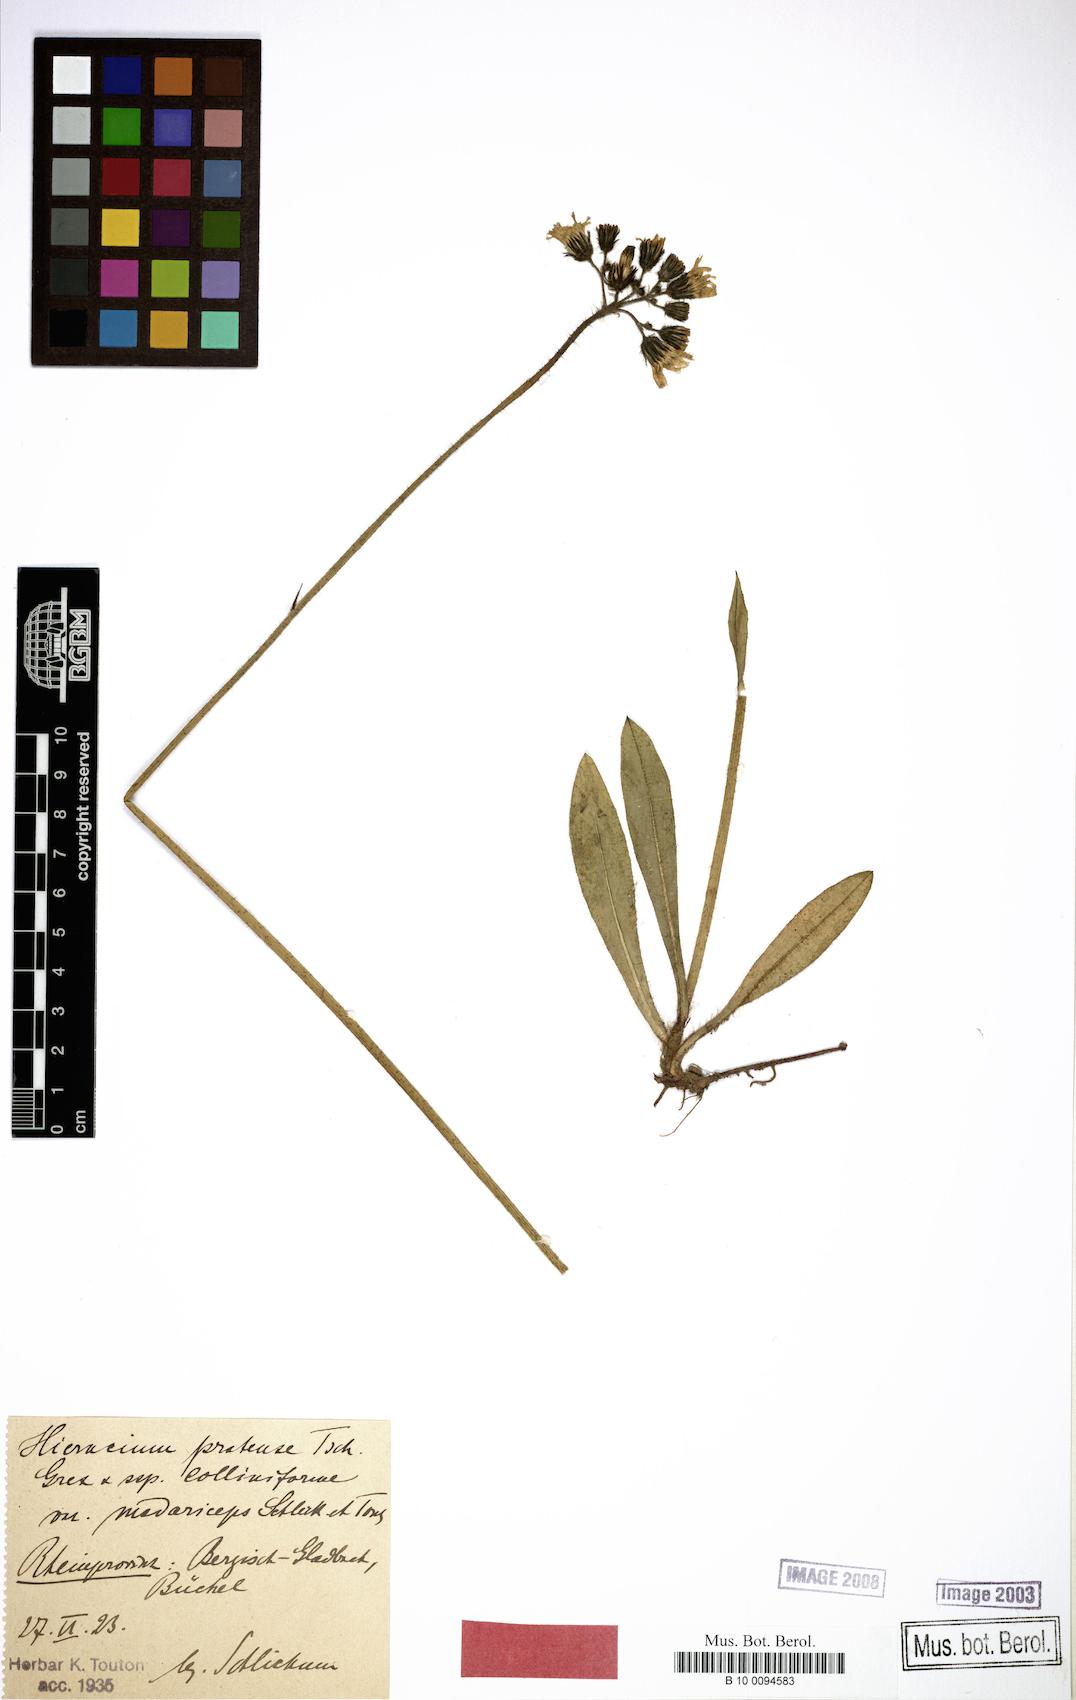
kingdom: Plantae
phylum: Tracheophyta
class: Magnoliopsida
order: Asterales
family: Asteraceae
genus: Pilosella
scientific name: Pilosella caespitosa
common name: Yellow fox-and-cubs
